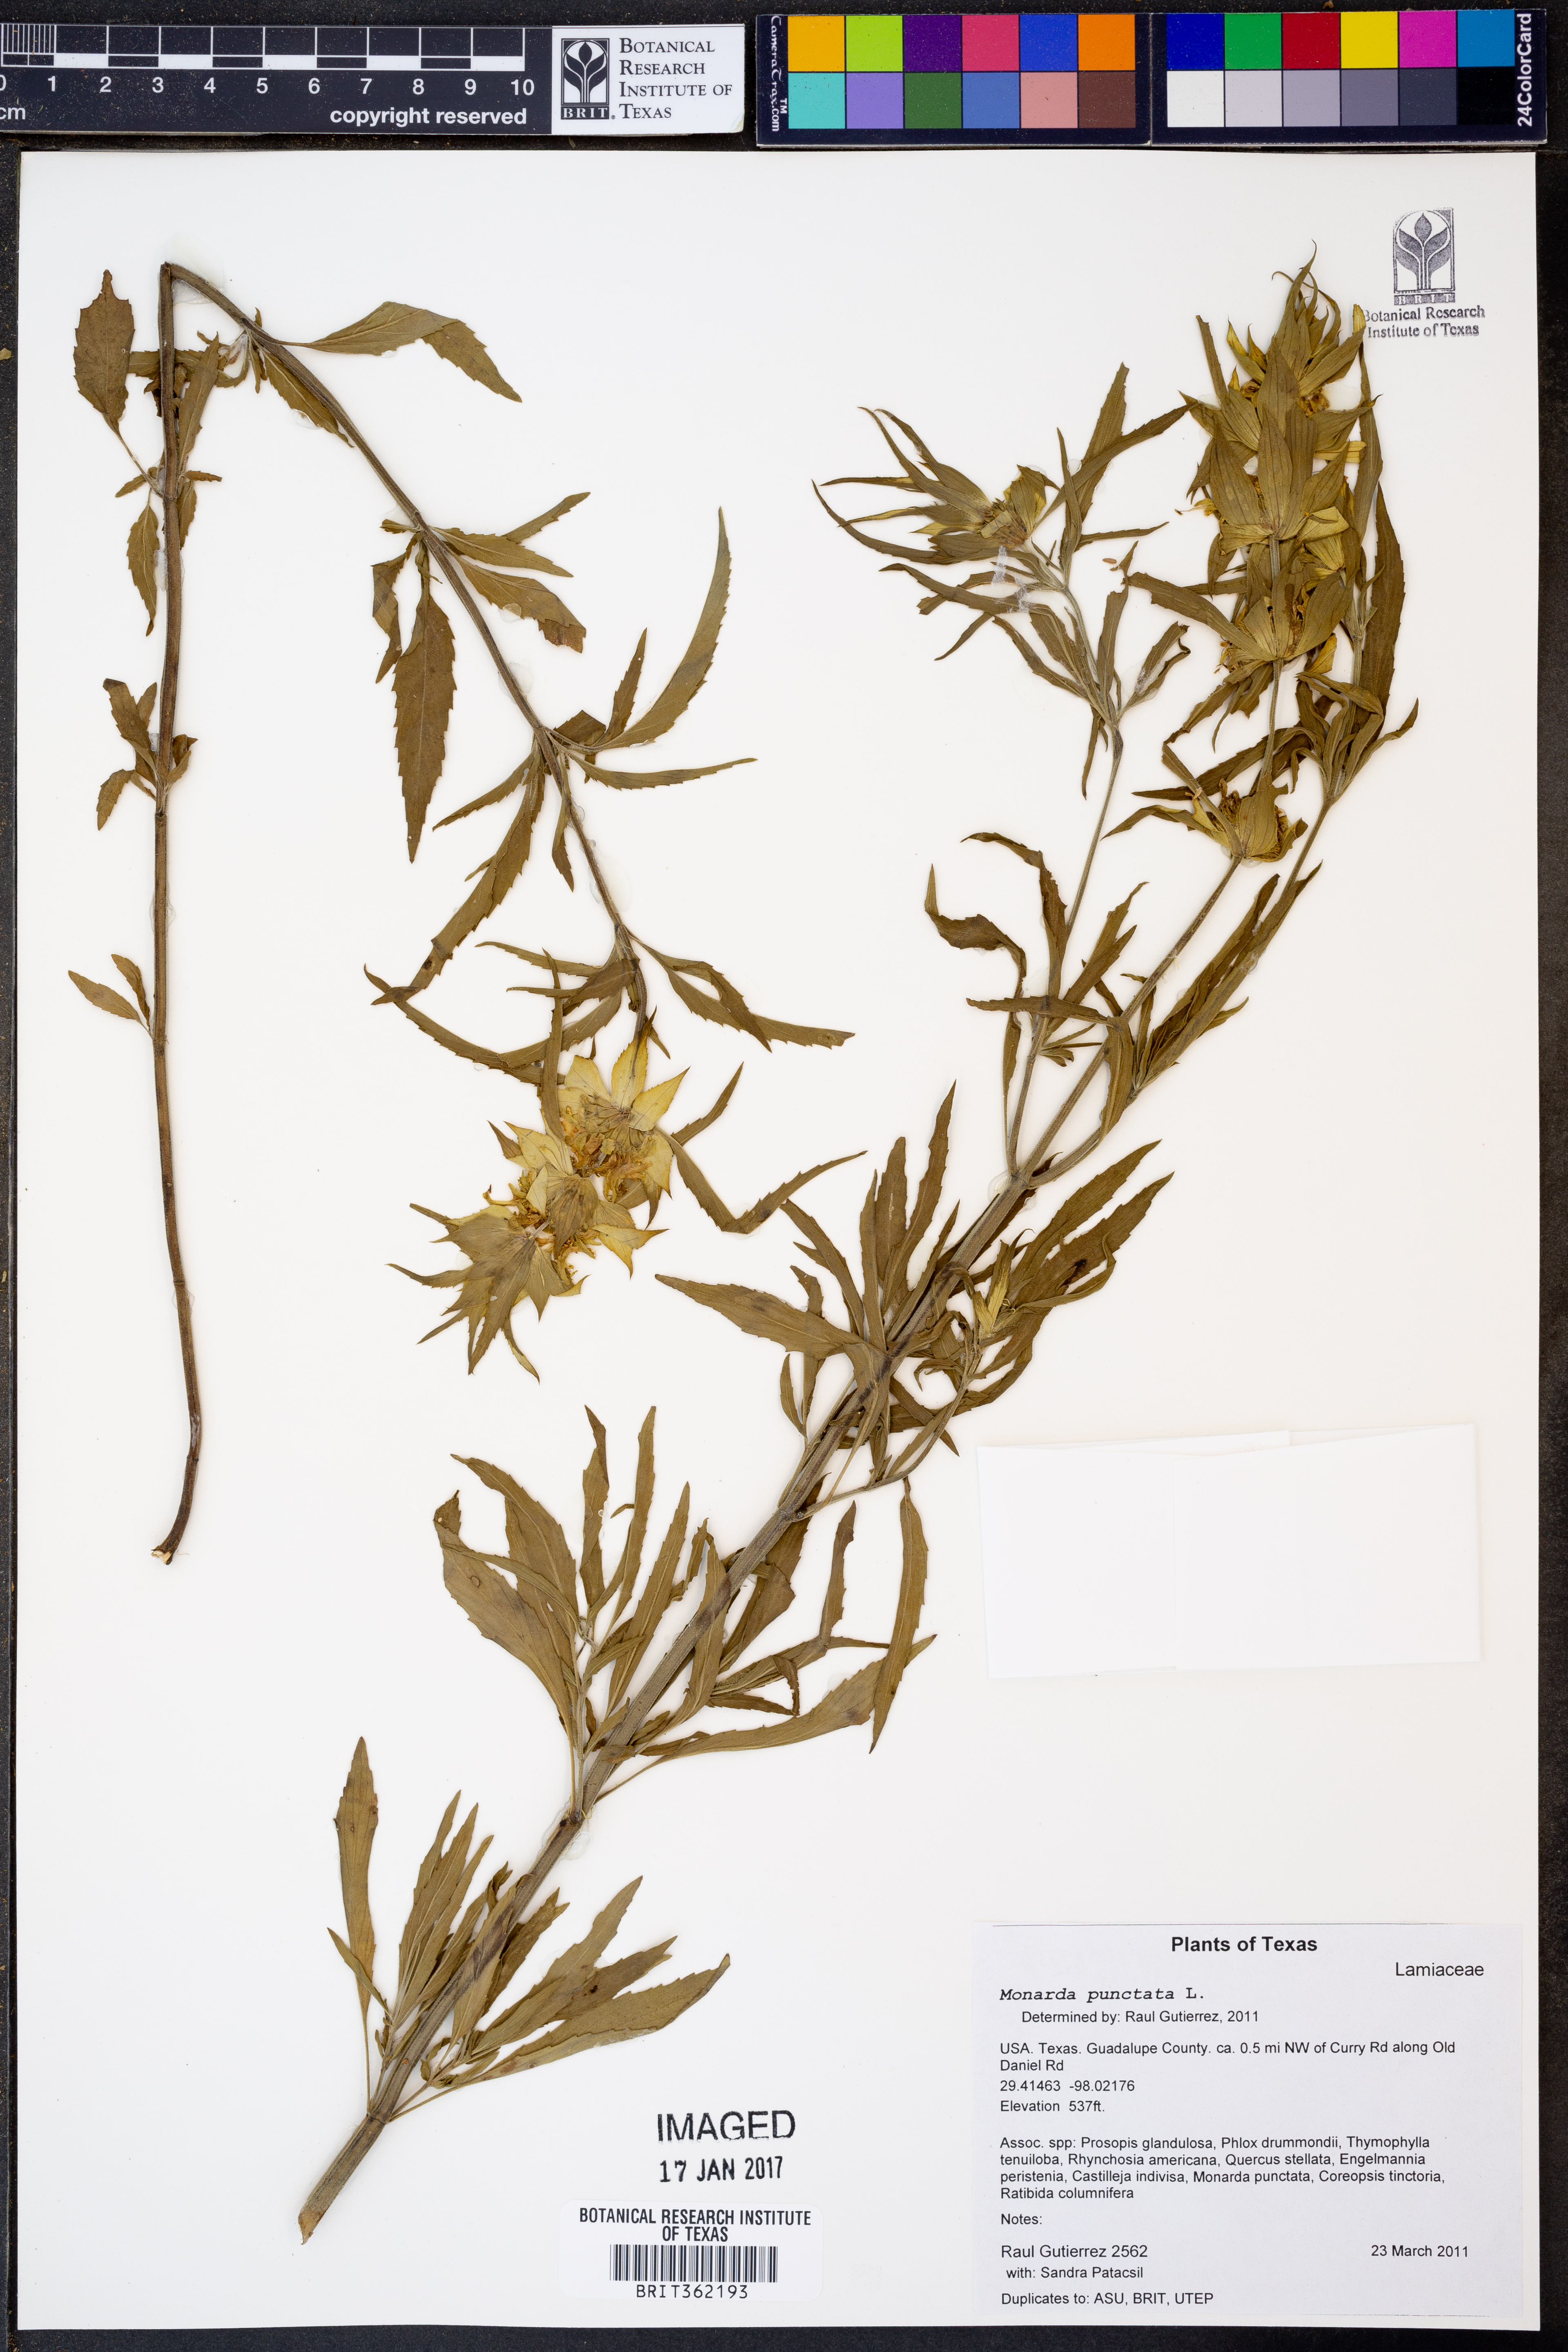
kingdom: Plantae
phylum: Tracheophyta
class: Magnoliopsida
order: Lamiales
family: Lamiaceae
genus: Monarda
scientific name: Monarda punctata
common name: Dotted monarda
